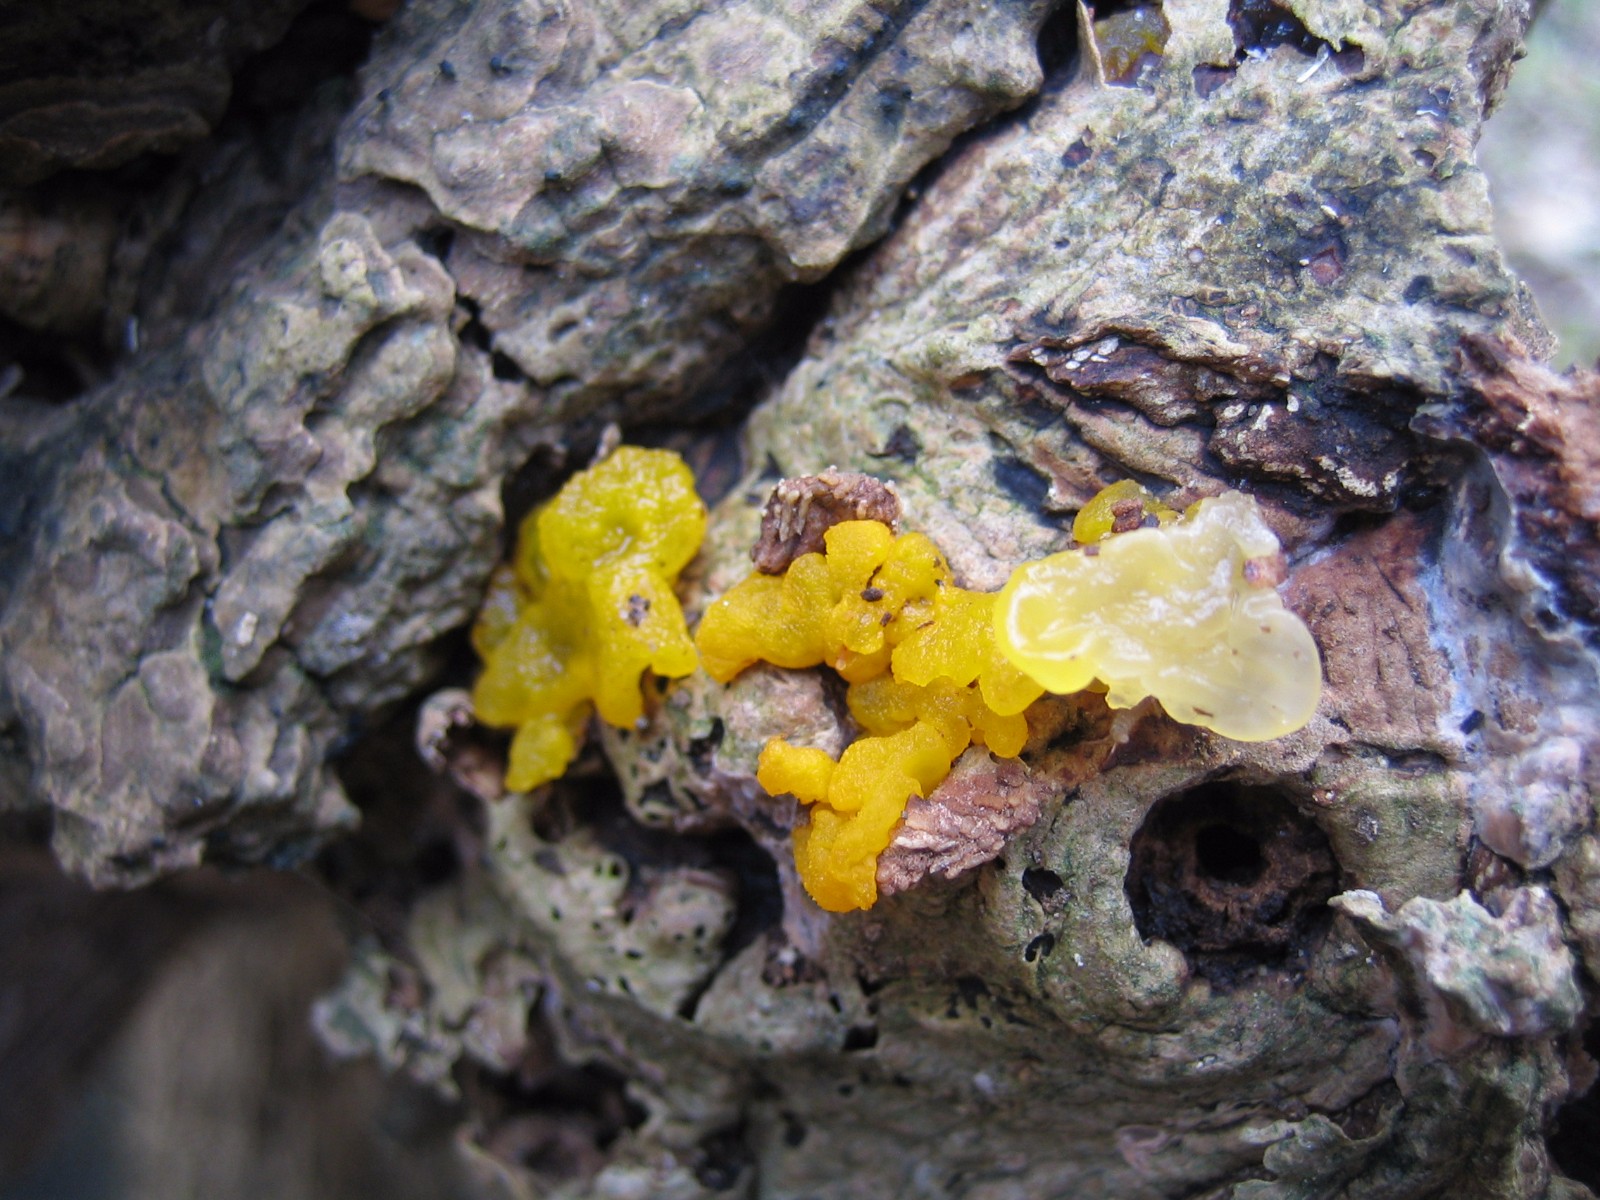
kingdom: Fungi
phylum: Basidiomycota
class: Tremellomycetes
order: Tremellales
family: Tremellaceae
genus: Tremella
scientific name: Tremella mesenterica
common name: gul bævresvamp
